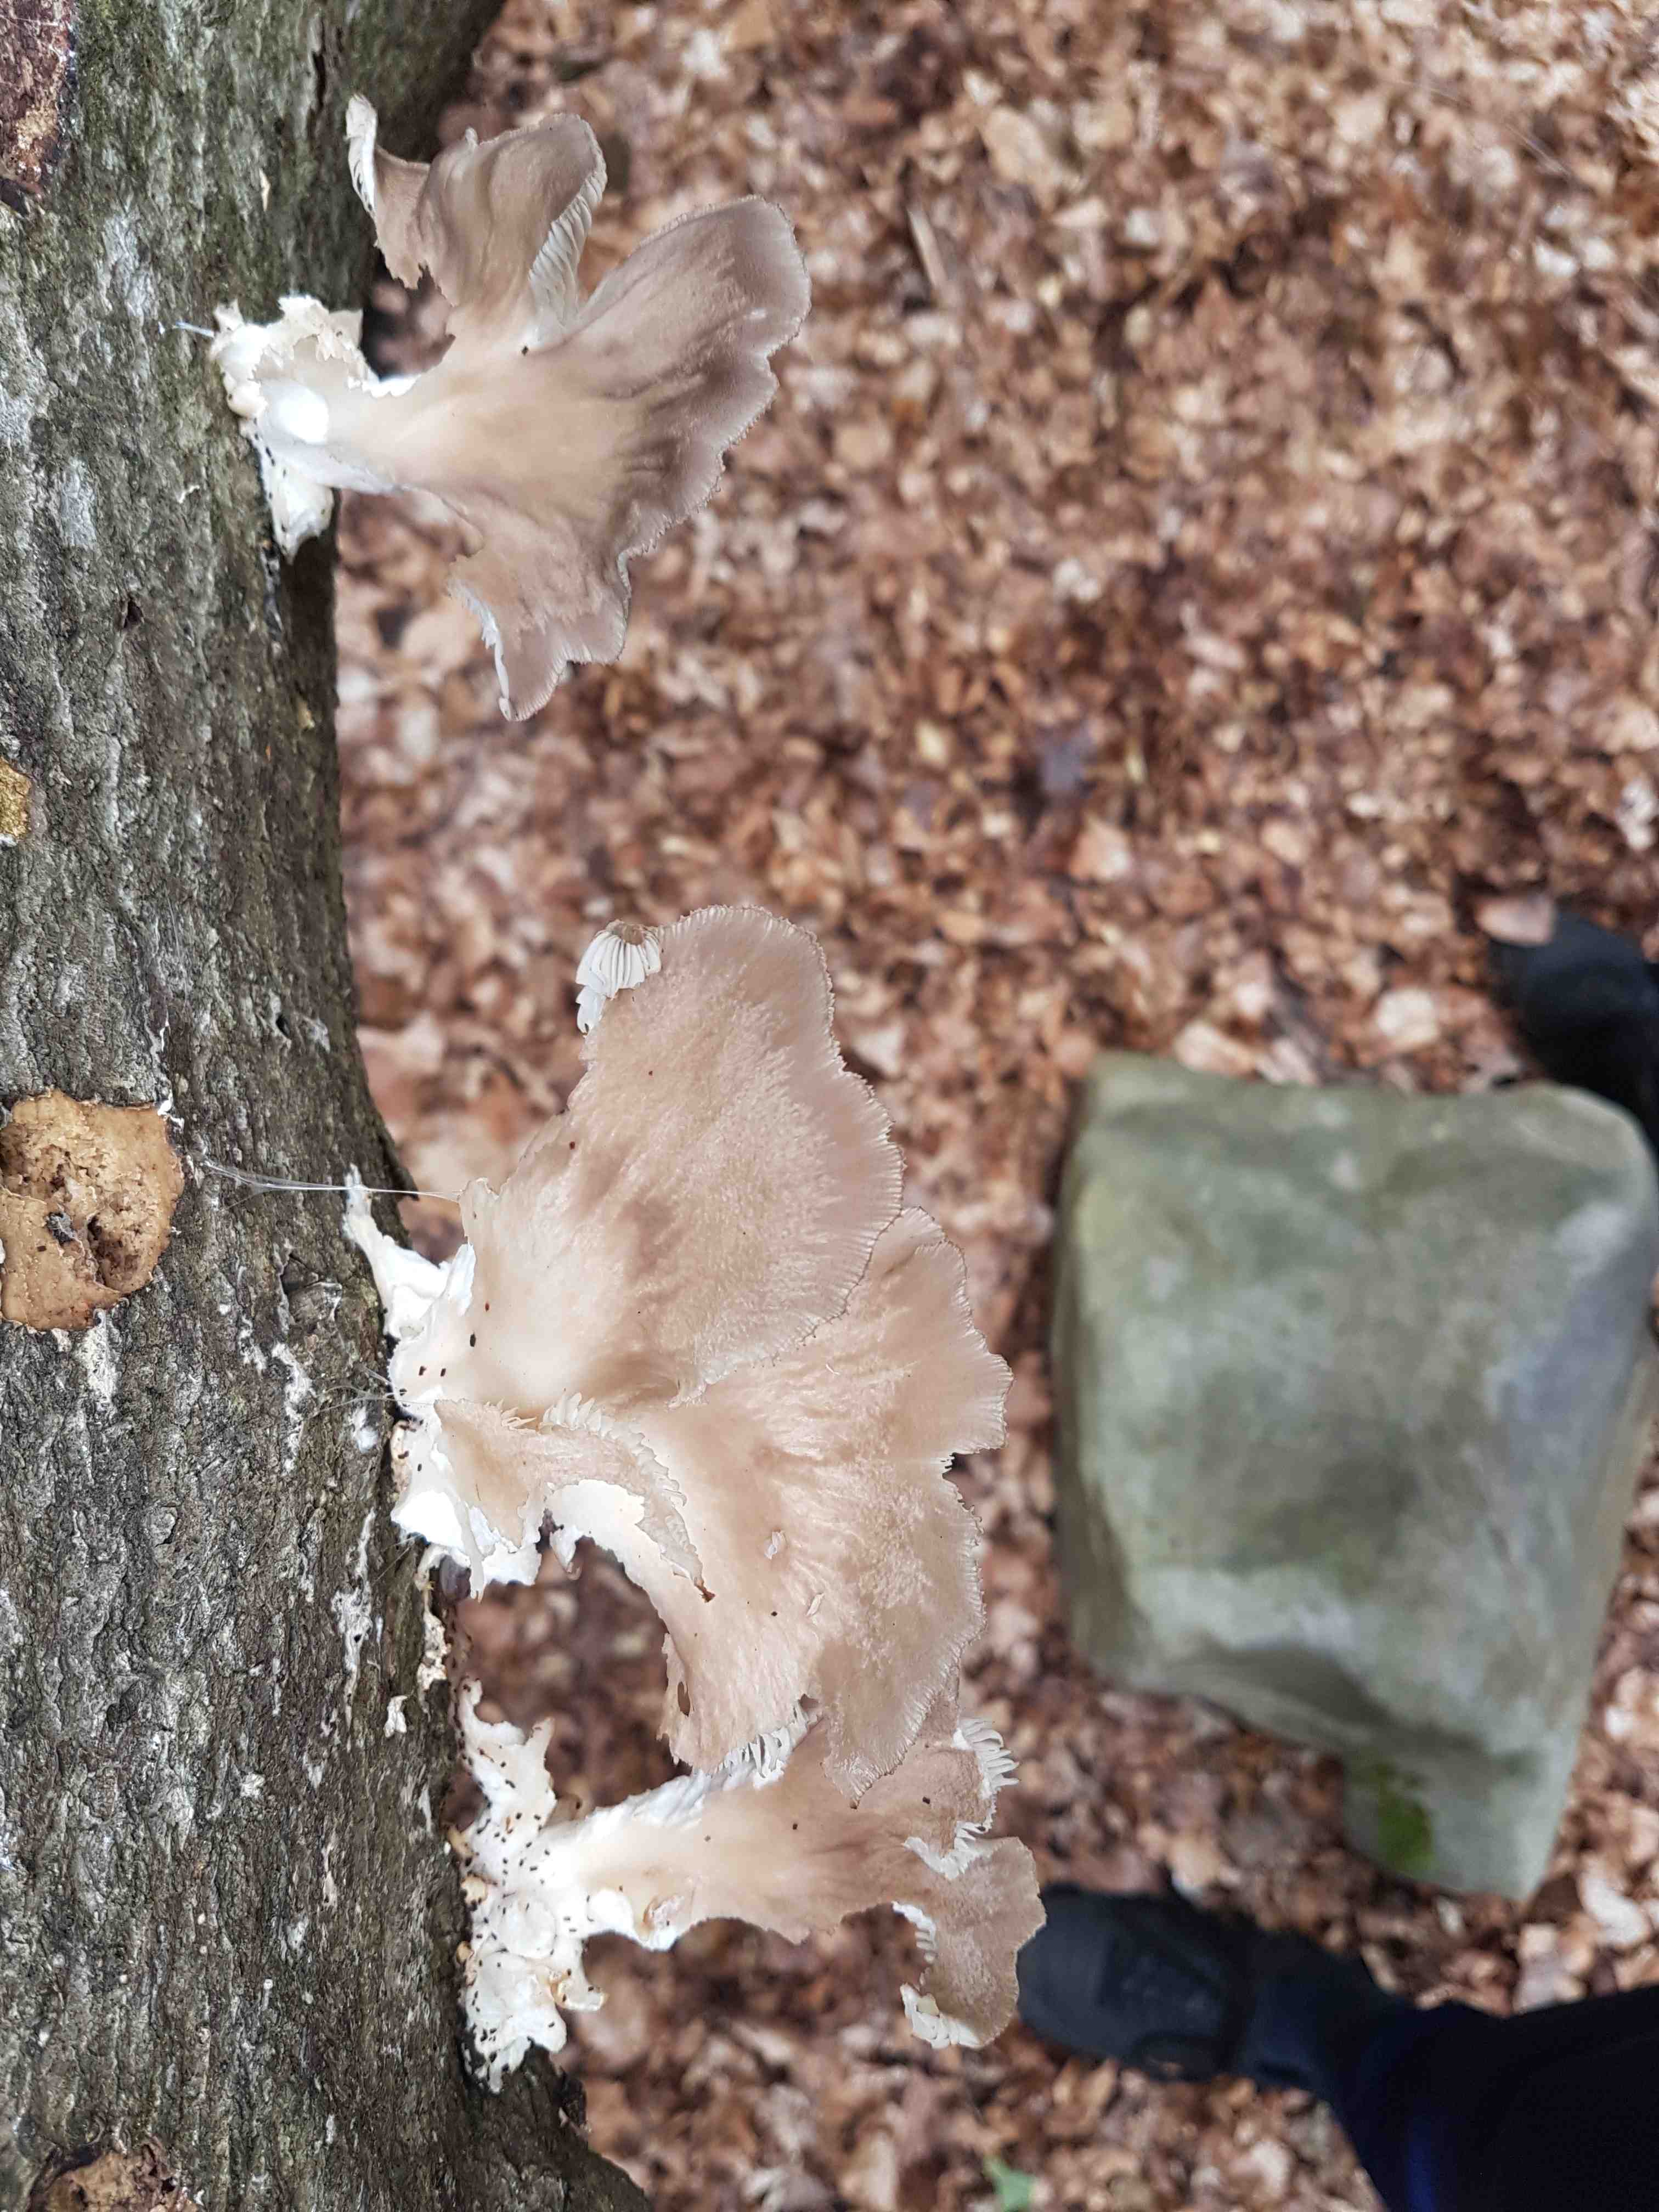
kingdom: Fungi
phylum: Basidiomycota
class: Agaricomycetes
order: Agaricales
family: Pleurotaceae
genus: Pleurotus
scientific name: Pleurotus pulmonarius
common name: sommer-østershat
